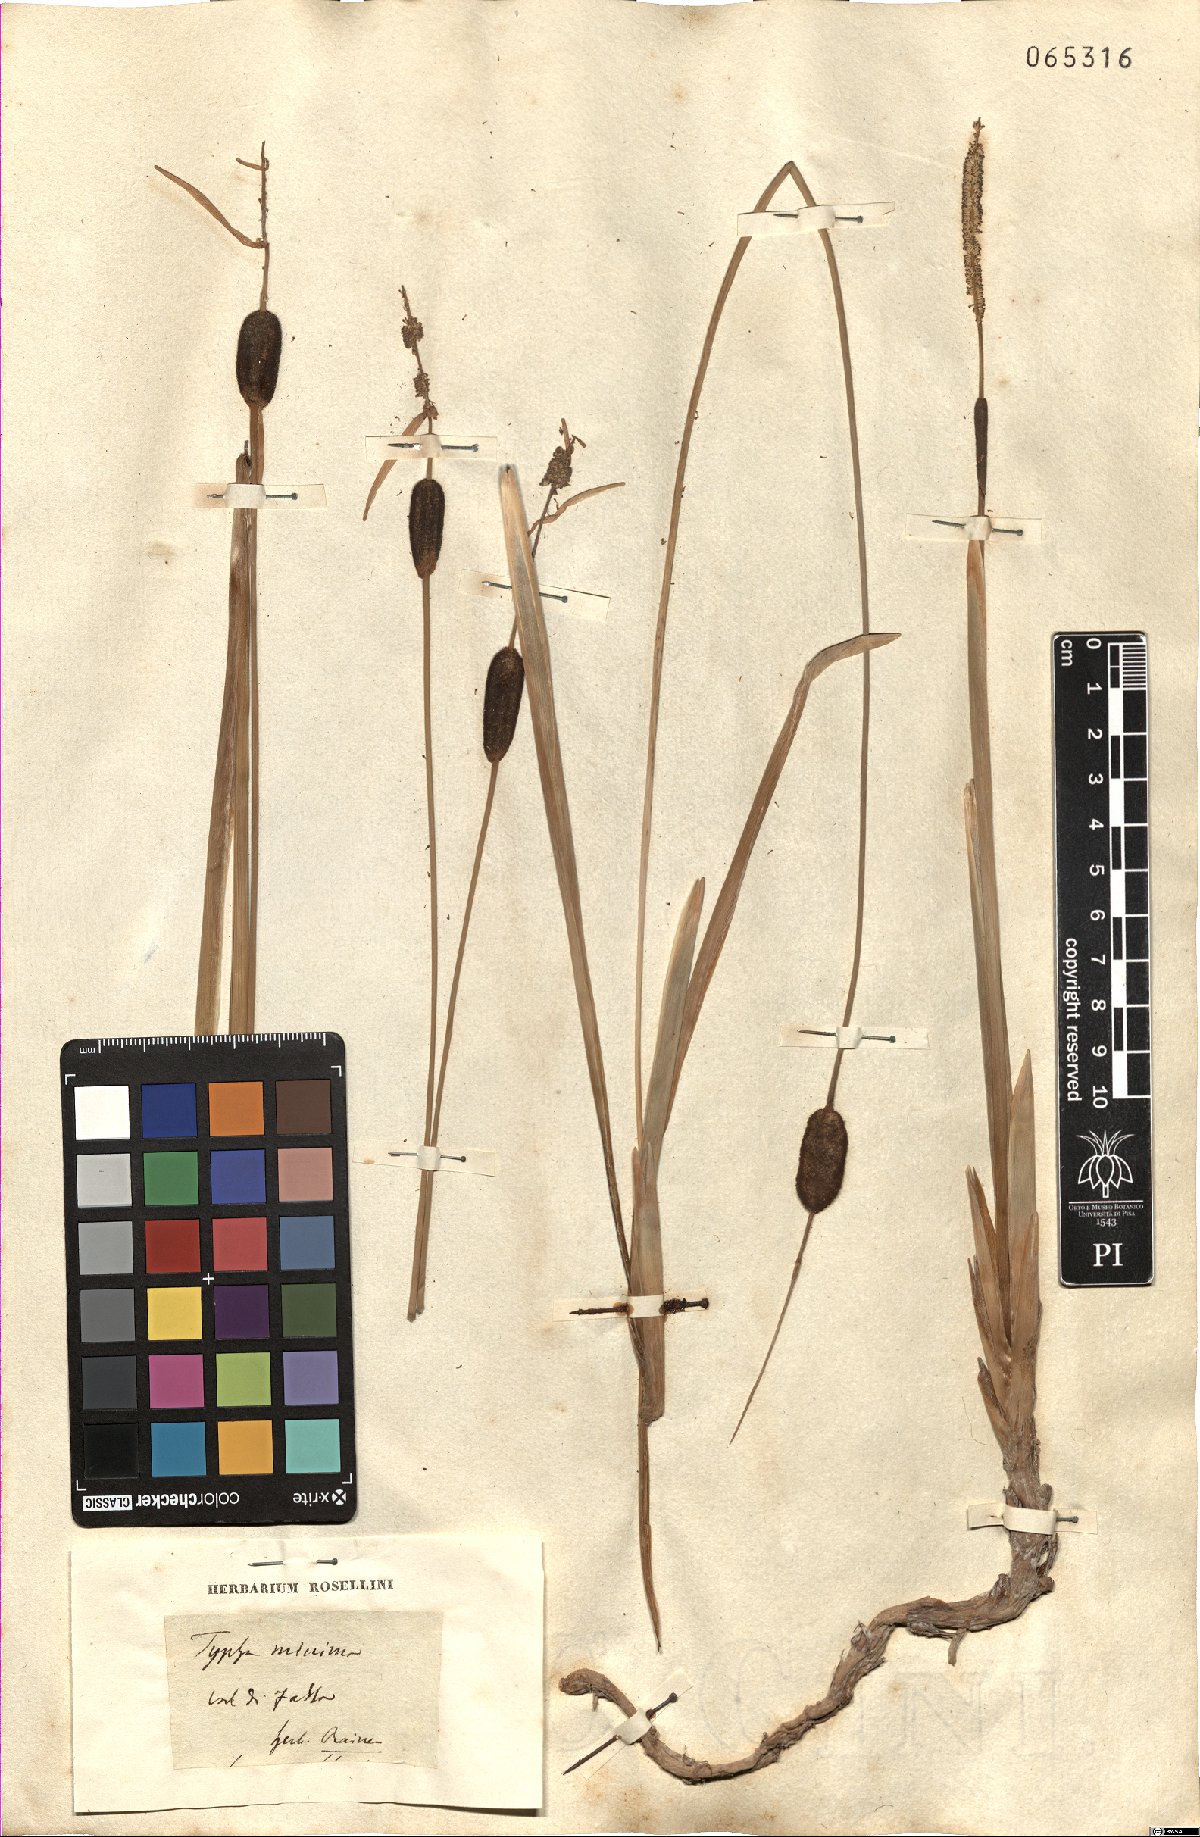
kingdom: Plantae
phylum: Tracheophyta
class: Liliopsida
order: Poales
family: Typhaceae
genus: Typha
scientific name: Typha minima
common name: Dwarf bulrush
